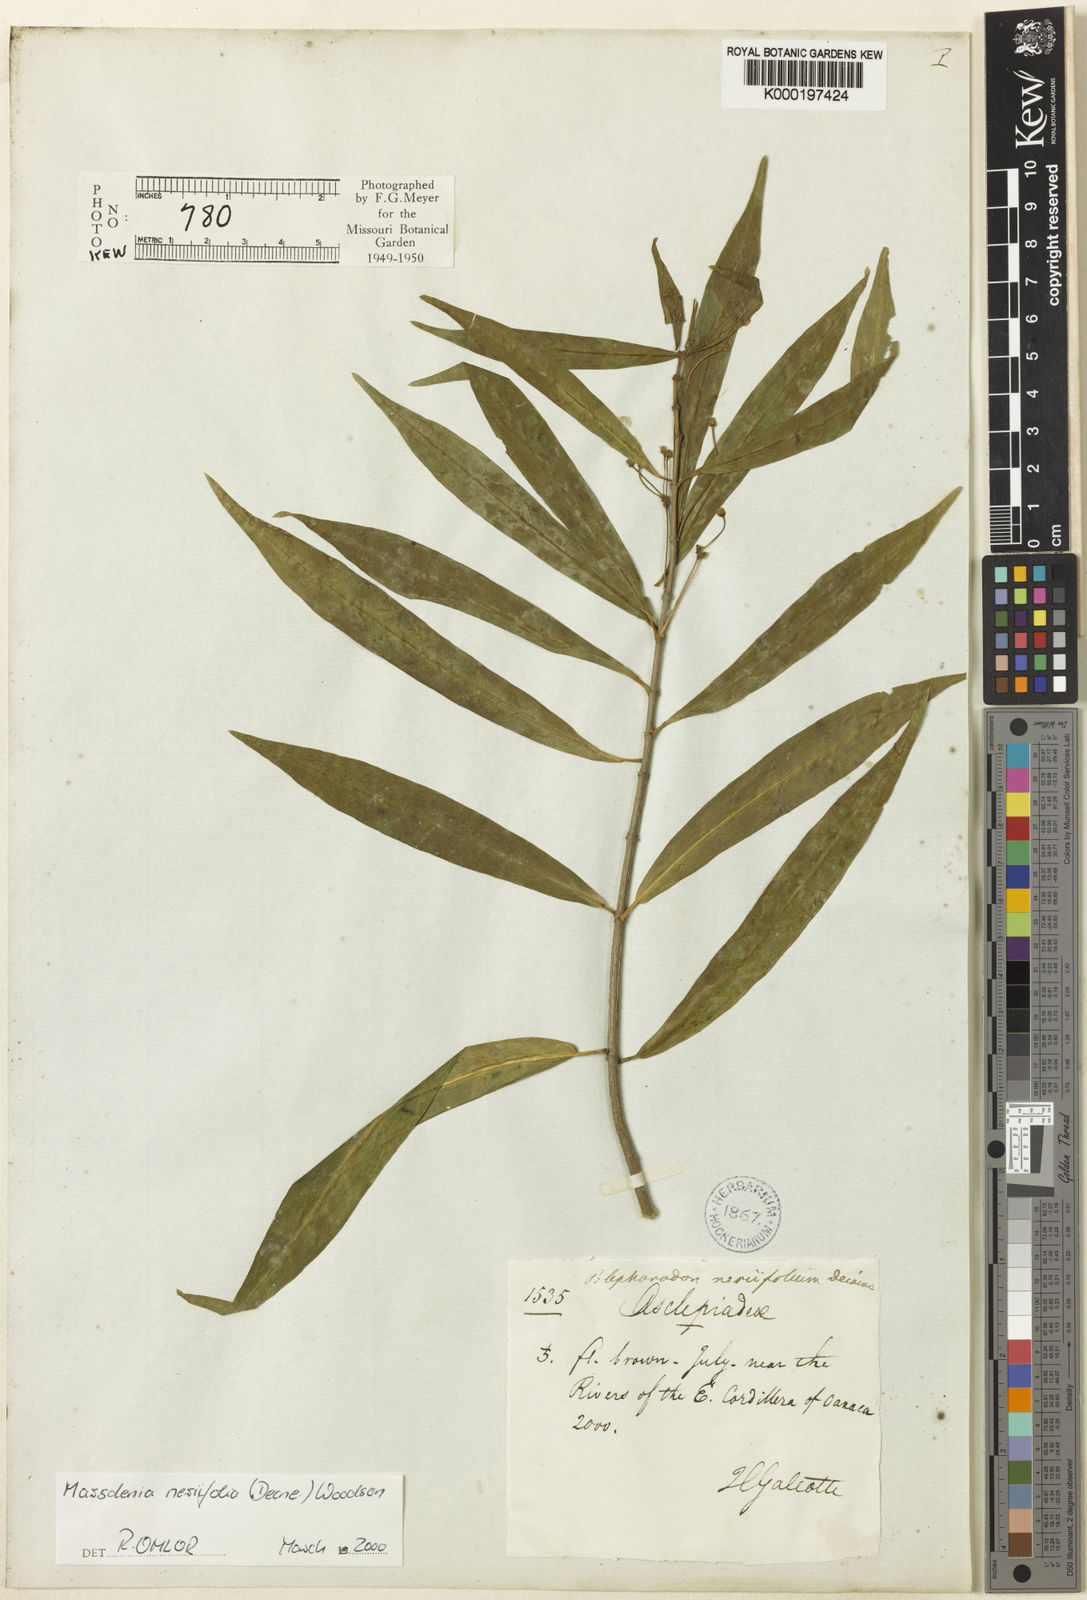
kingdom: Plantae
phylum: Tracheophyta
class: Magnoliopsida
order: Gentianales
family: Apocynaceae
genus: Ruehssia
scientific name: Ruehssia neriifolia
